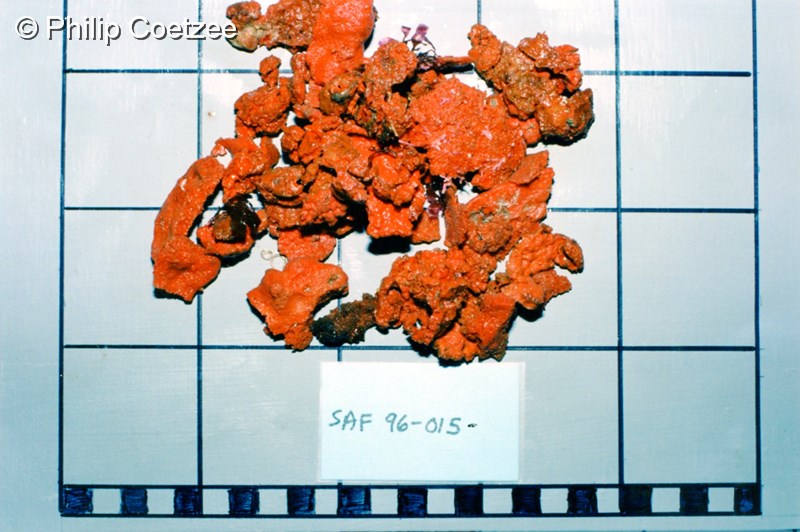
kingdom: Animalia
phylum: Porifera
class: Demospongiae
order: Clionaida
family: Placospongiidae
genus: Placospongia
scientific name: Placospongia
